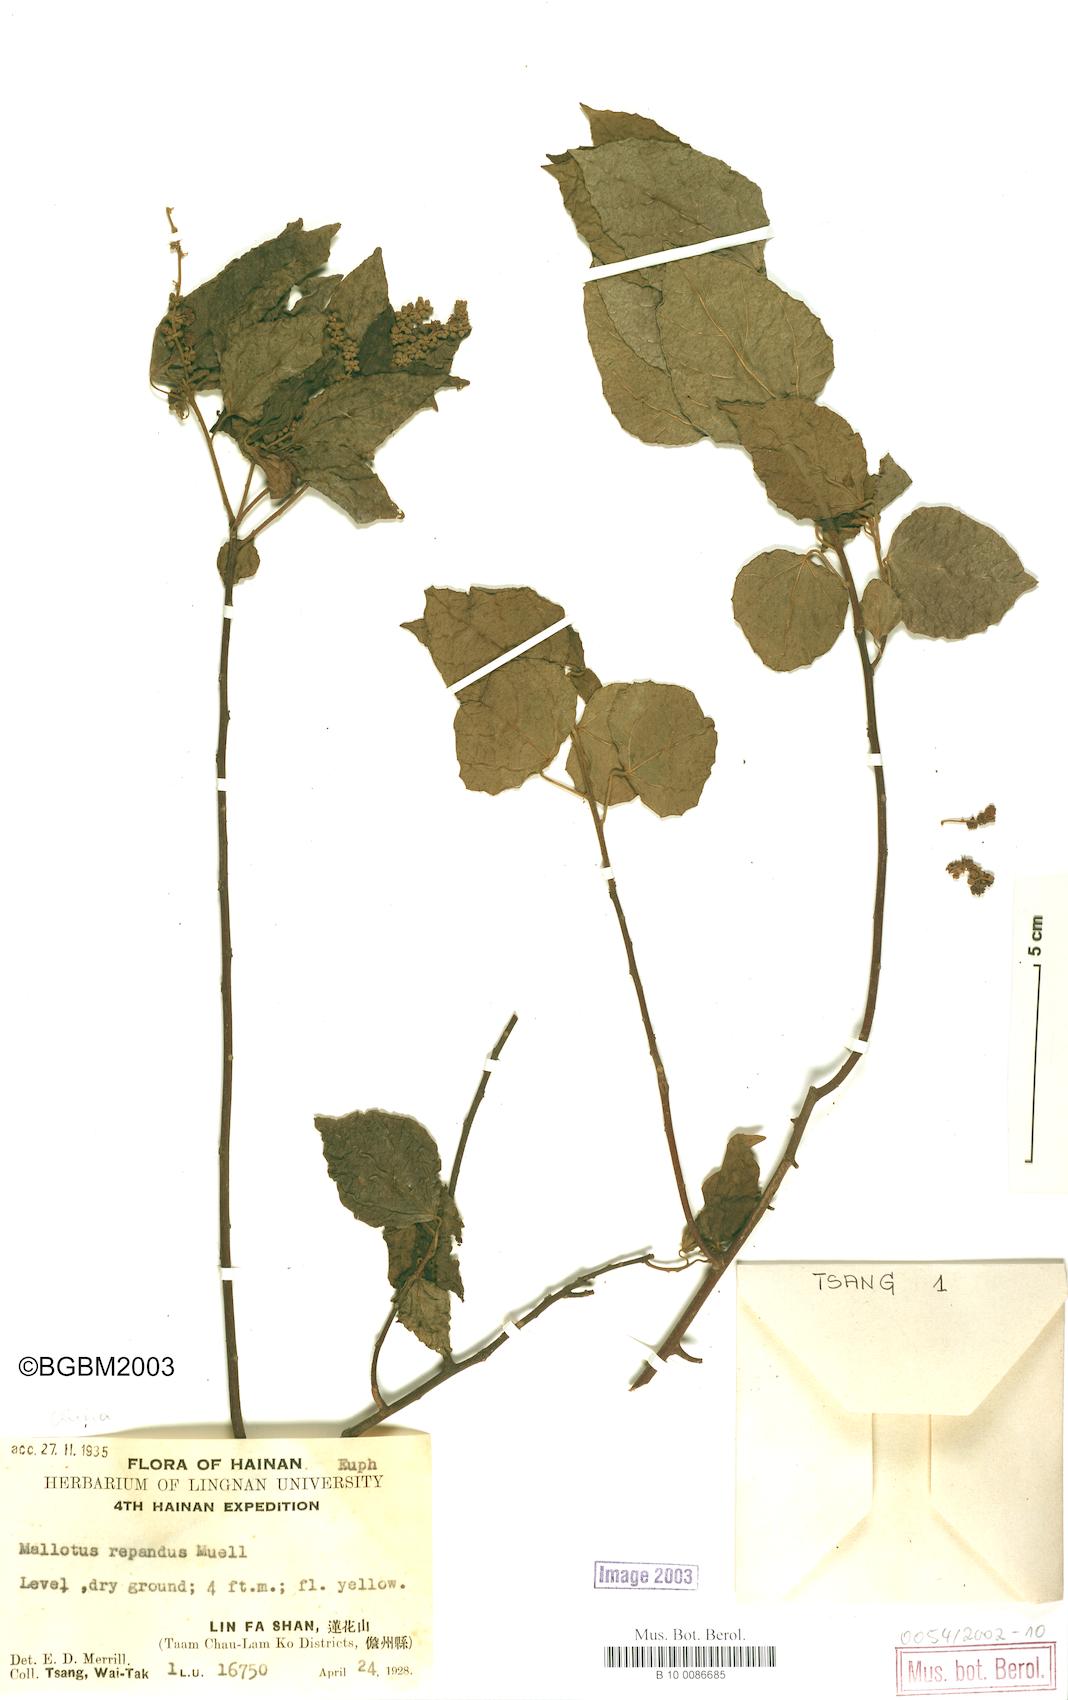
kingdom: Plantae
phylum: Tracheophyta
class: Magnoliopsida
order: Malpighiales
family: Euphorbiaceae
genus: Mallotus
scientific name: Mallotus repandus
